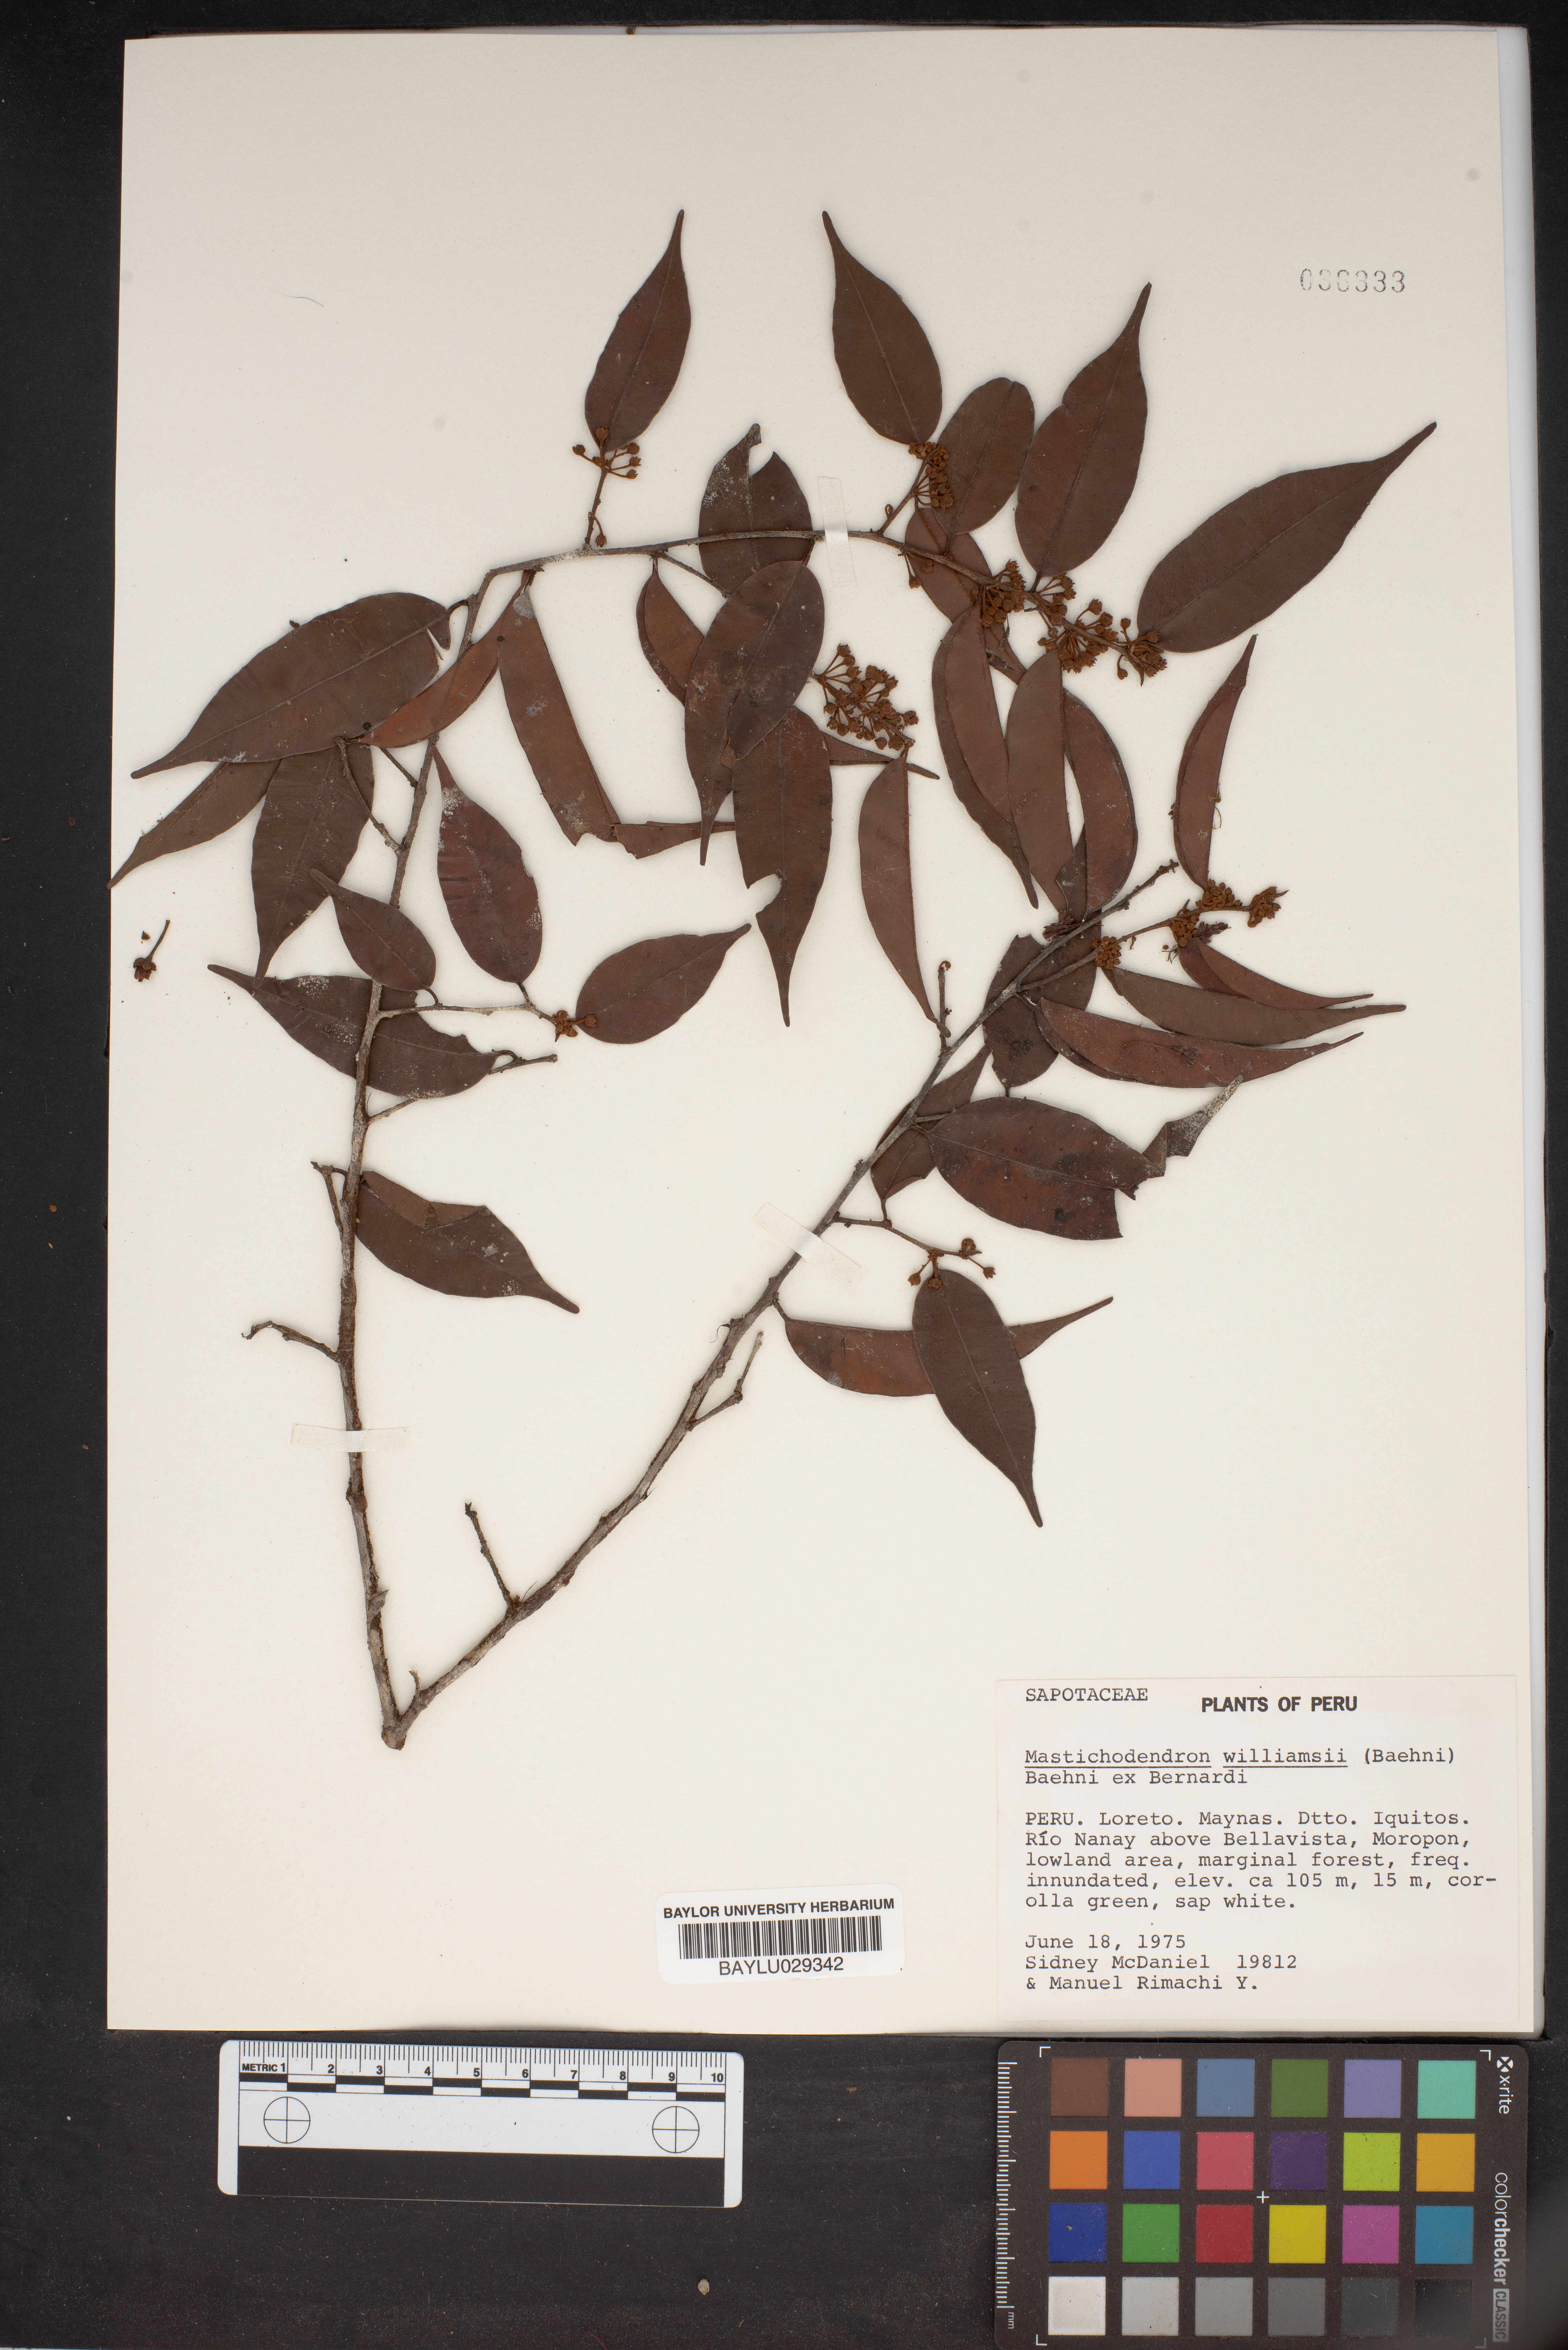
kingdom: Plantae
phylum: Tracheophyta
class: Magnoliopsida
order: Ericales
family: Sapotaceae
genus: Micropholis
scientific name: Micropholis guyanensis
